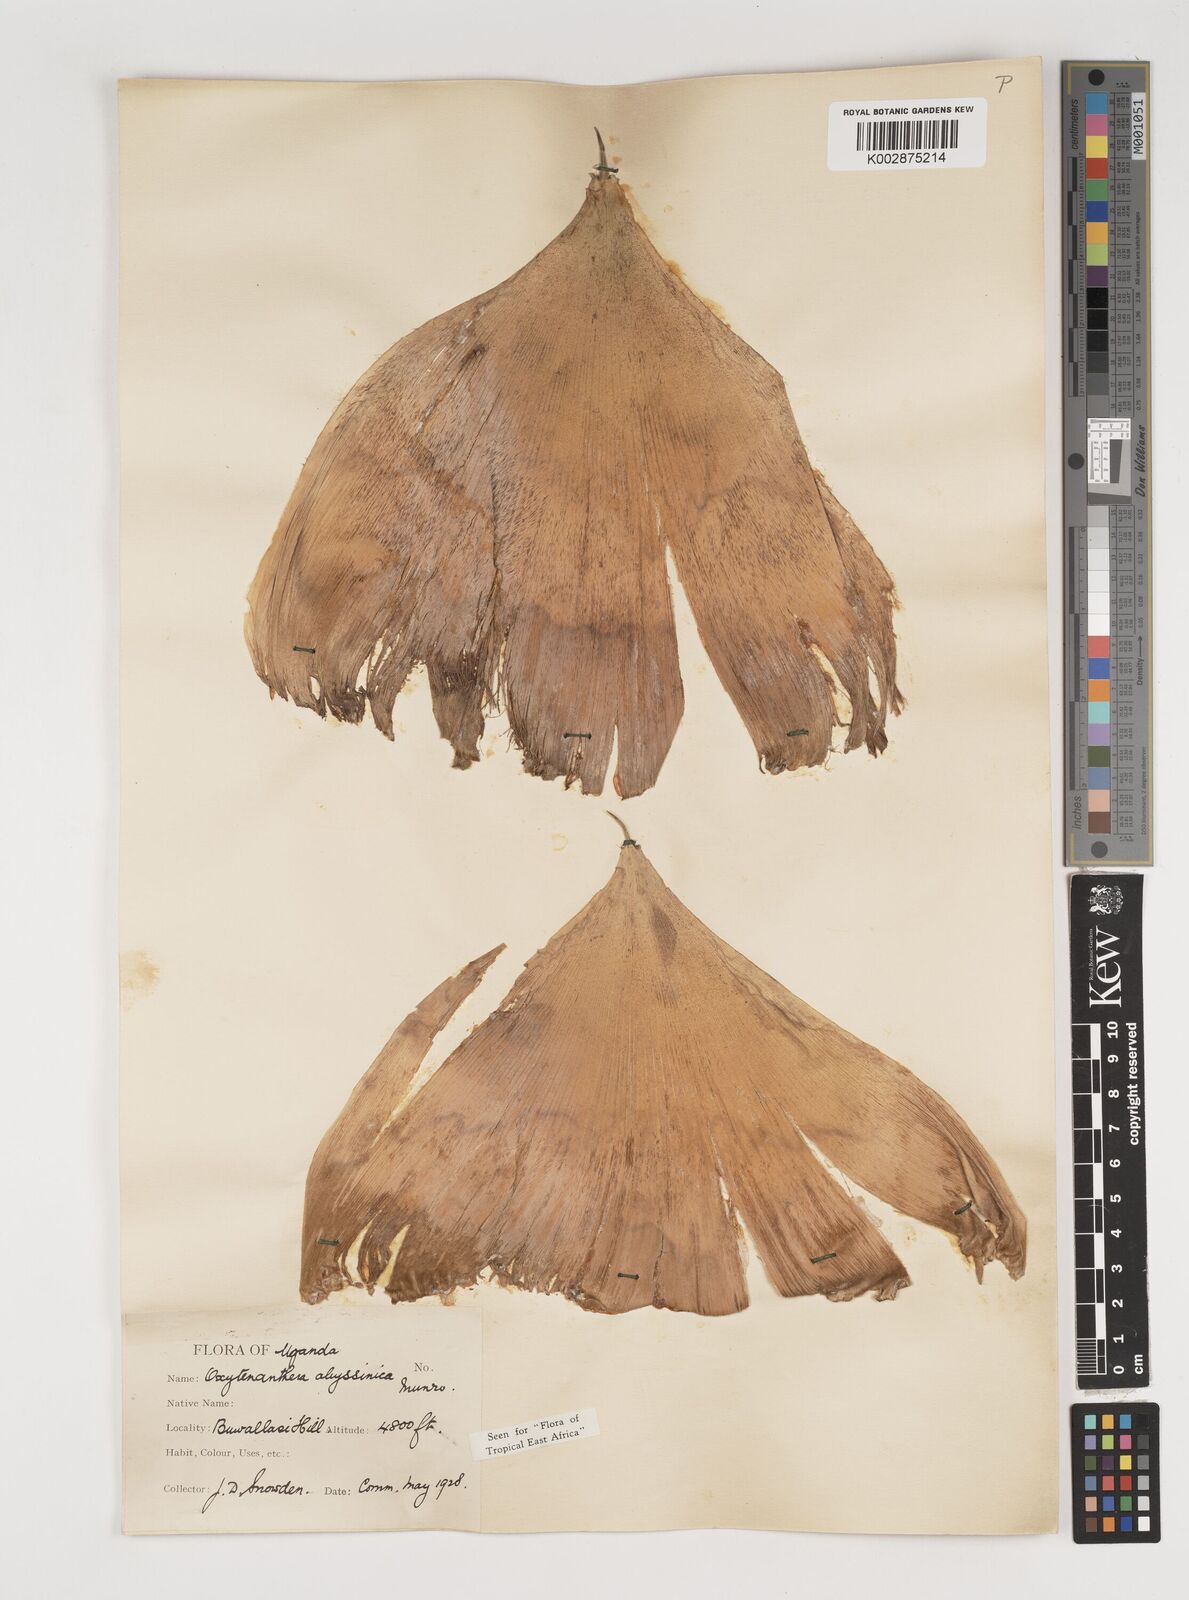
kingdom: Plantae
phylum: Tracheophyta
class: Liliopsida
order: Poales
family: Poaceae
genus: Oxytenanthera
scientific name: Oxytenanthera abyssinica
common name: Wine bamboo
